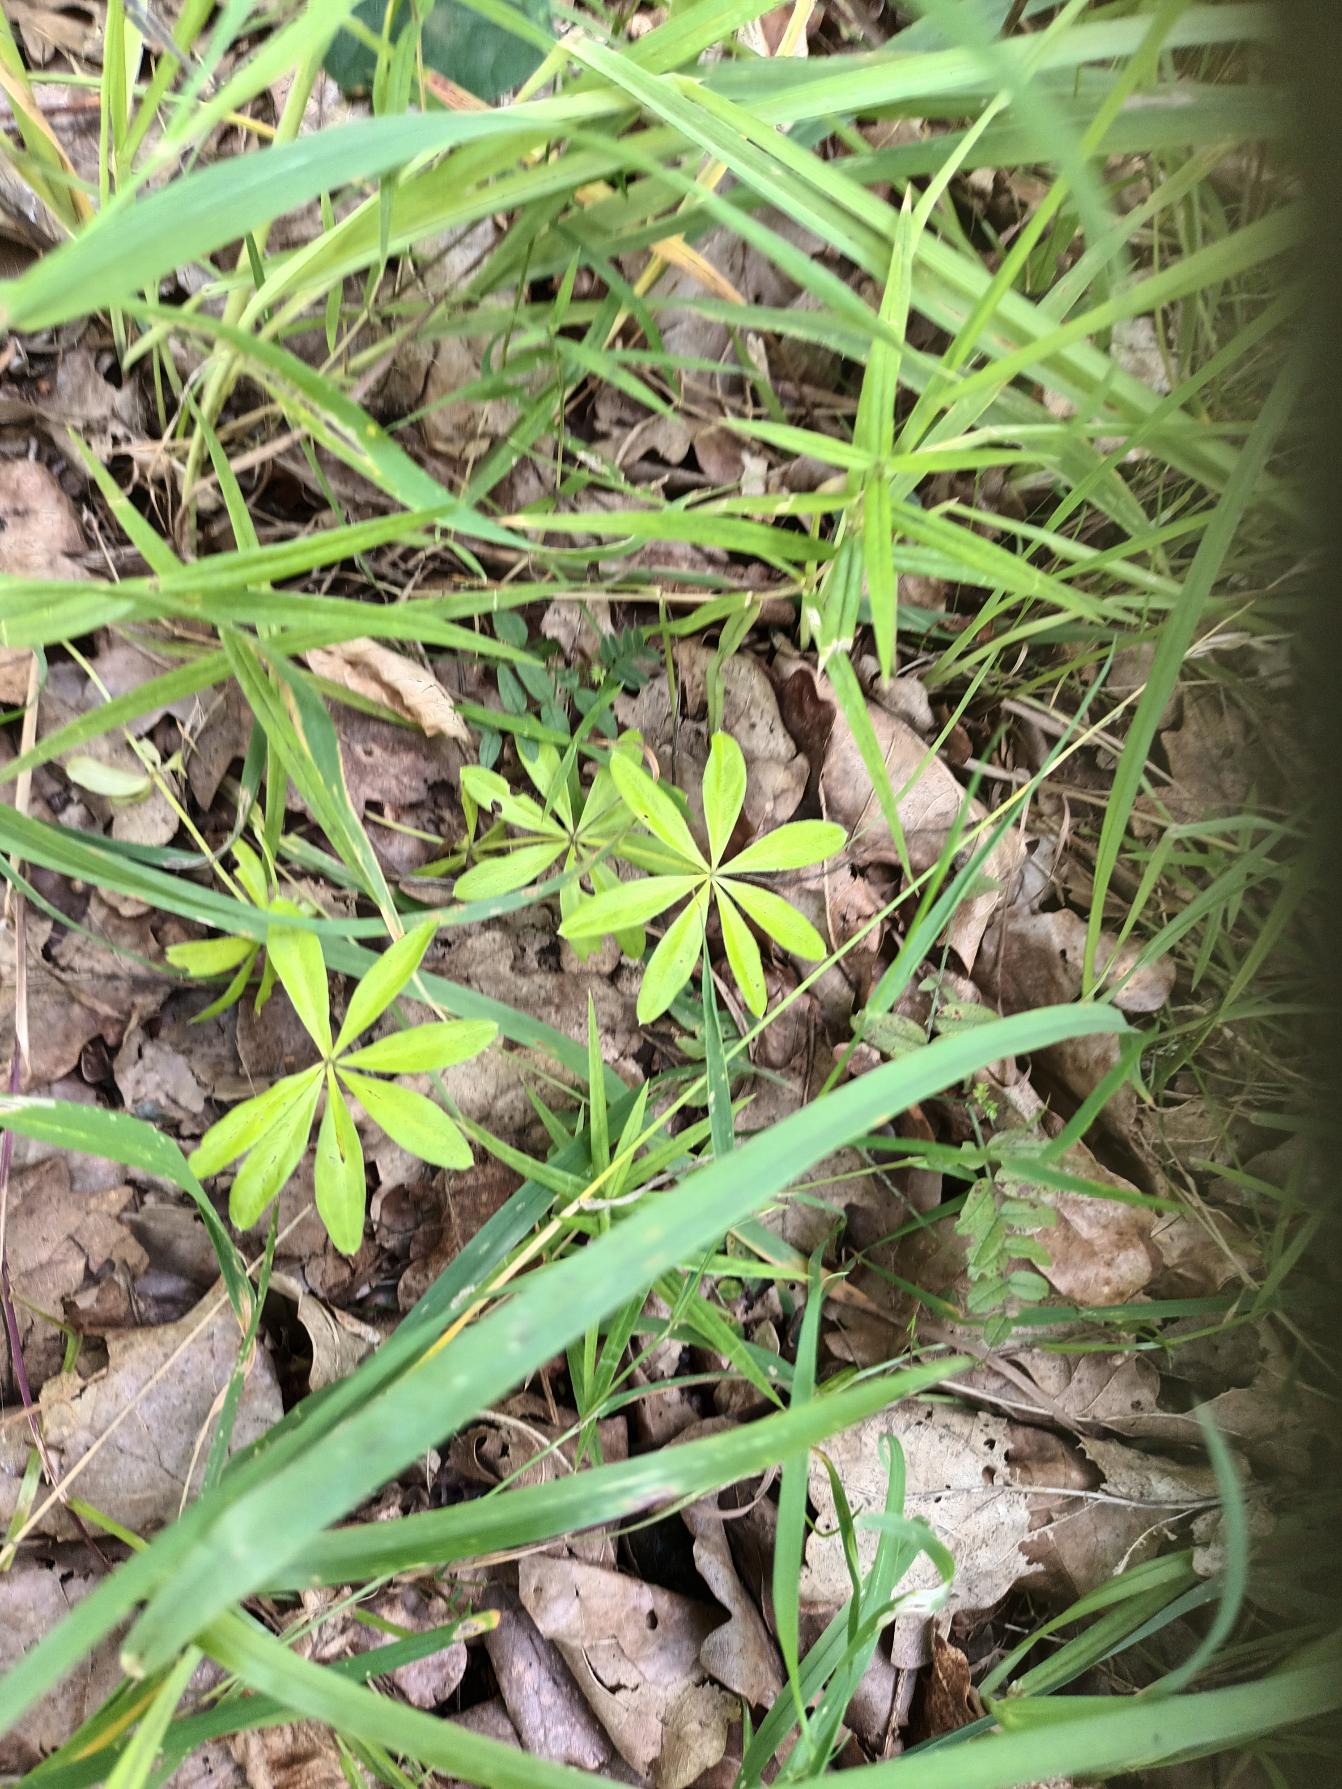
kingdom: Plantae
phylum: Tracheophyta
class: Magnoliopsida
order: Gentianales
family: Rubiaceae
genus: Galium
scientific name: Galium odoratum
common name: Skovmærke
